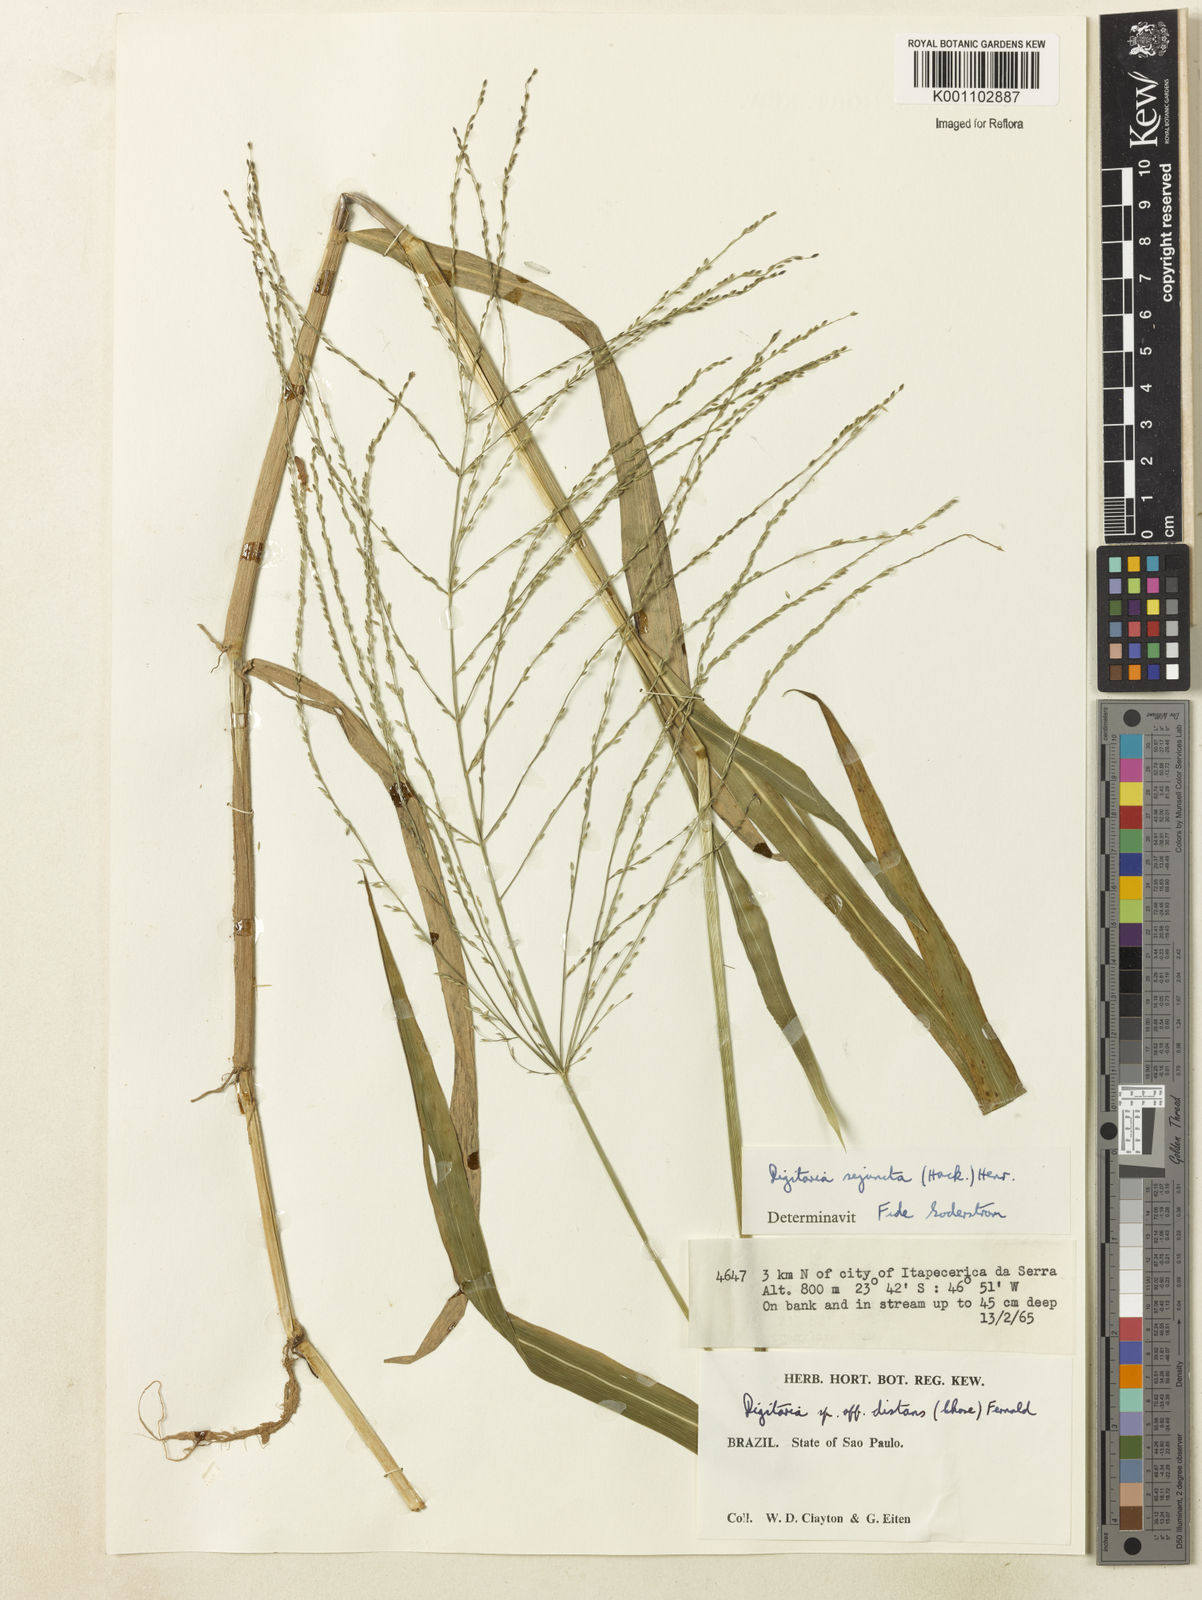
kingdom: Plantae
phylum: Tracheophyta
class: Liliopsida
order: Poales
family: Poaceae
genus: Digitaria
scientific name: Digitaria sejuncta
